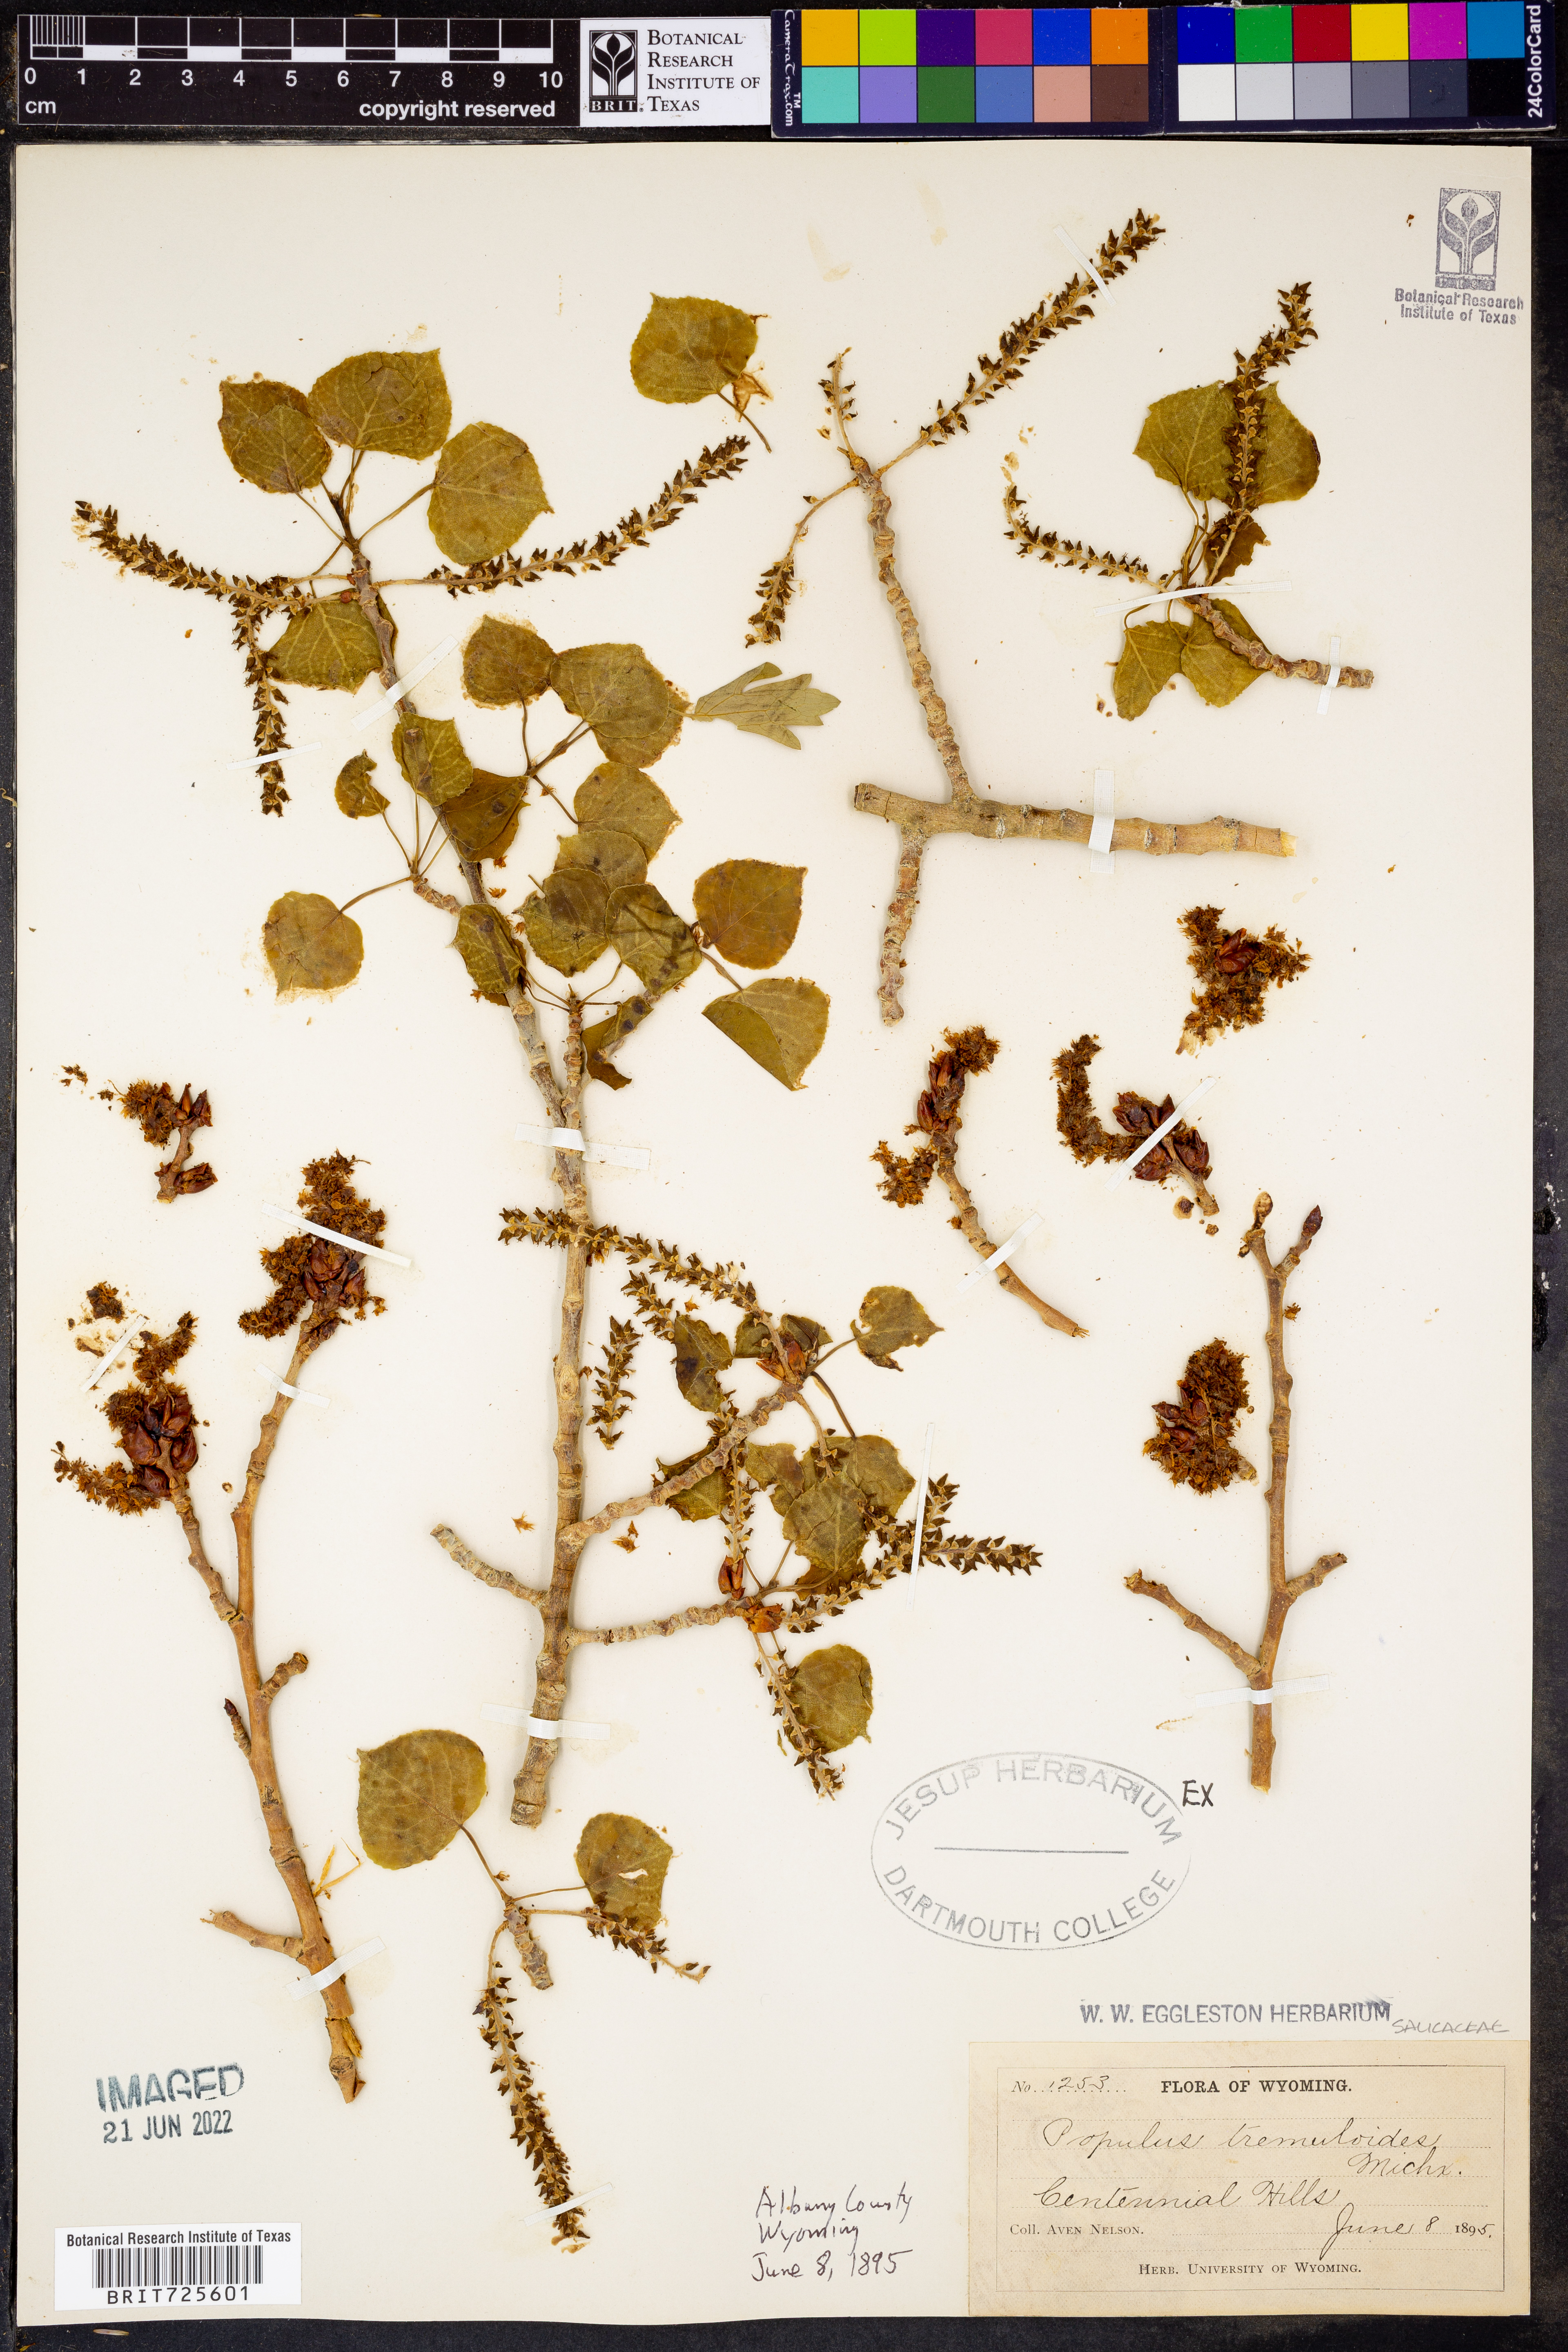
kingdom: Plantae
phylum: Tracheophyta
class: Magnoliopsida
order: Malpighiales
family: Salicaceae
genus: Populus
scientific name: Populus tremuloides
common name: Quaking aspen
